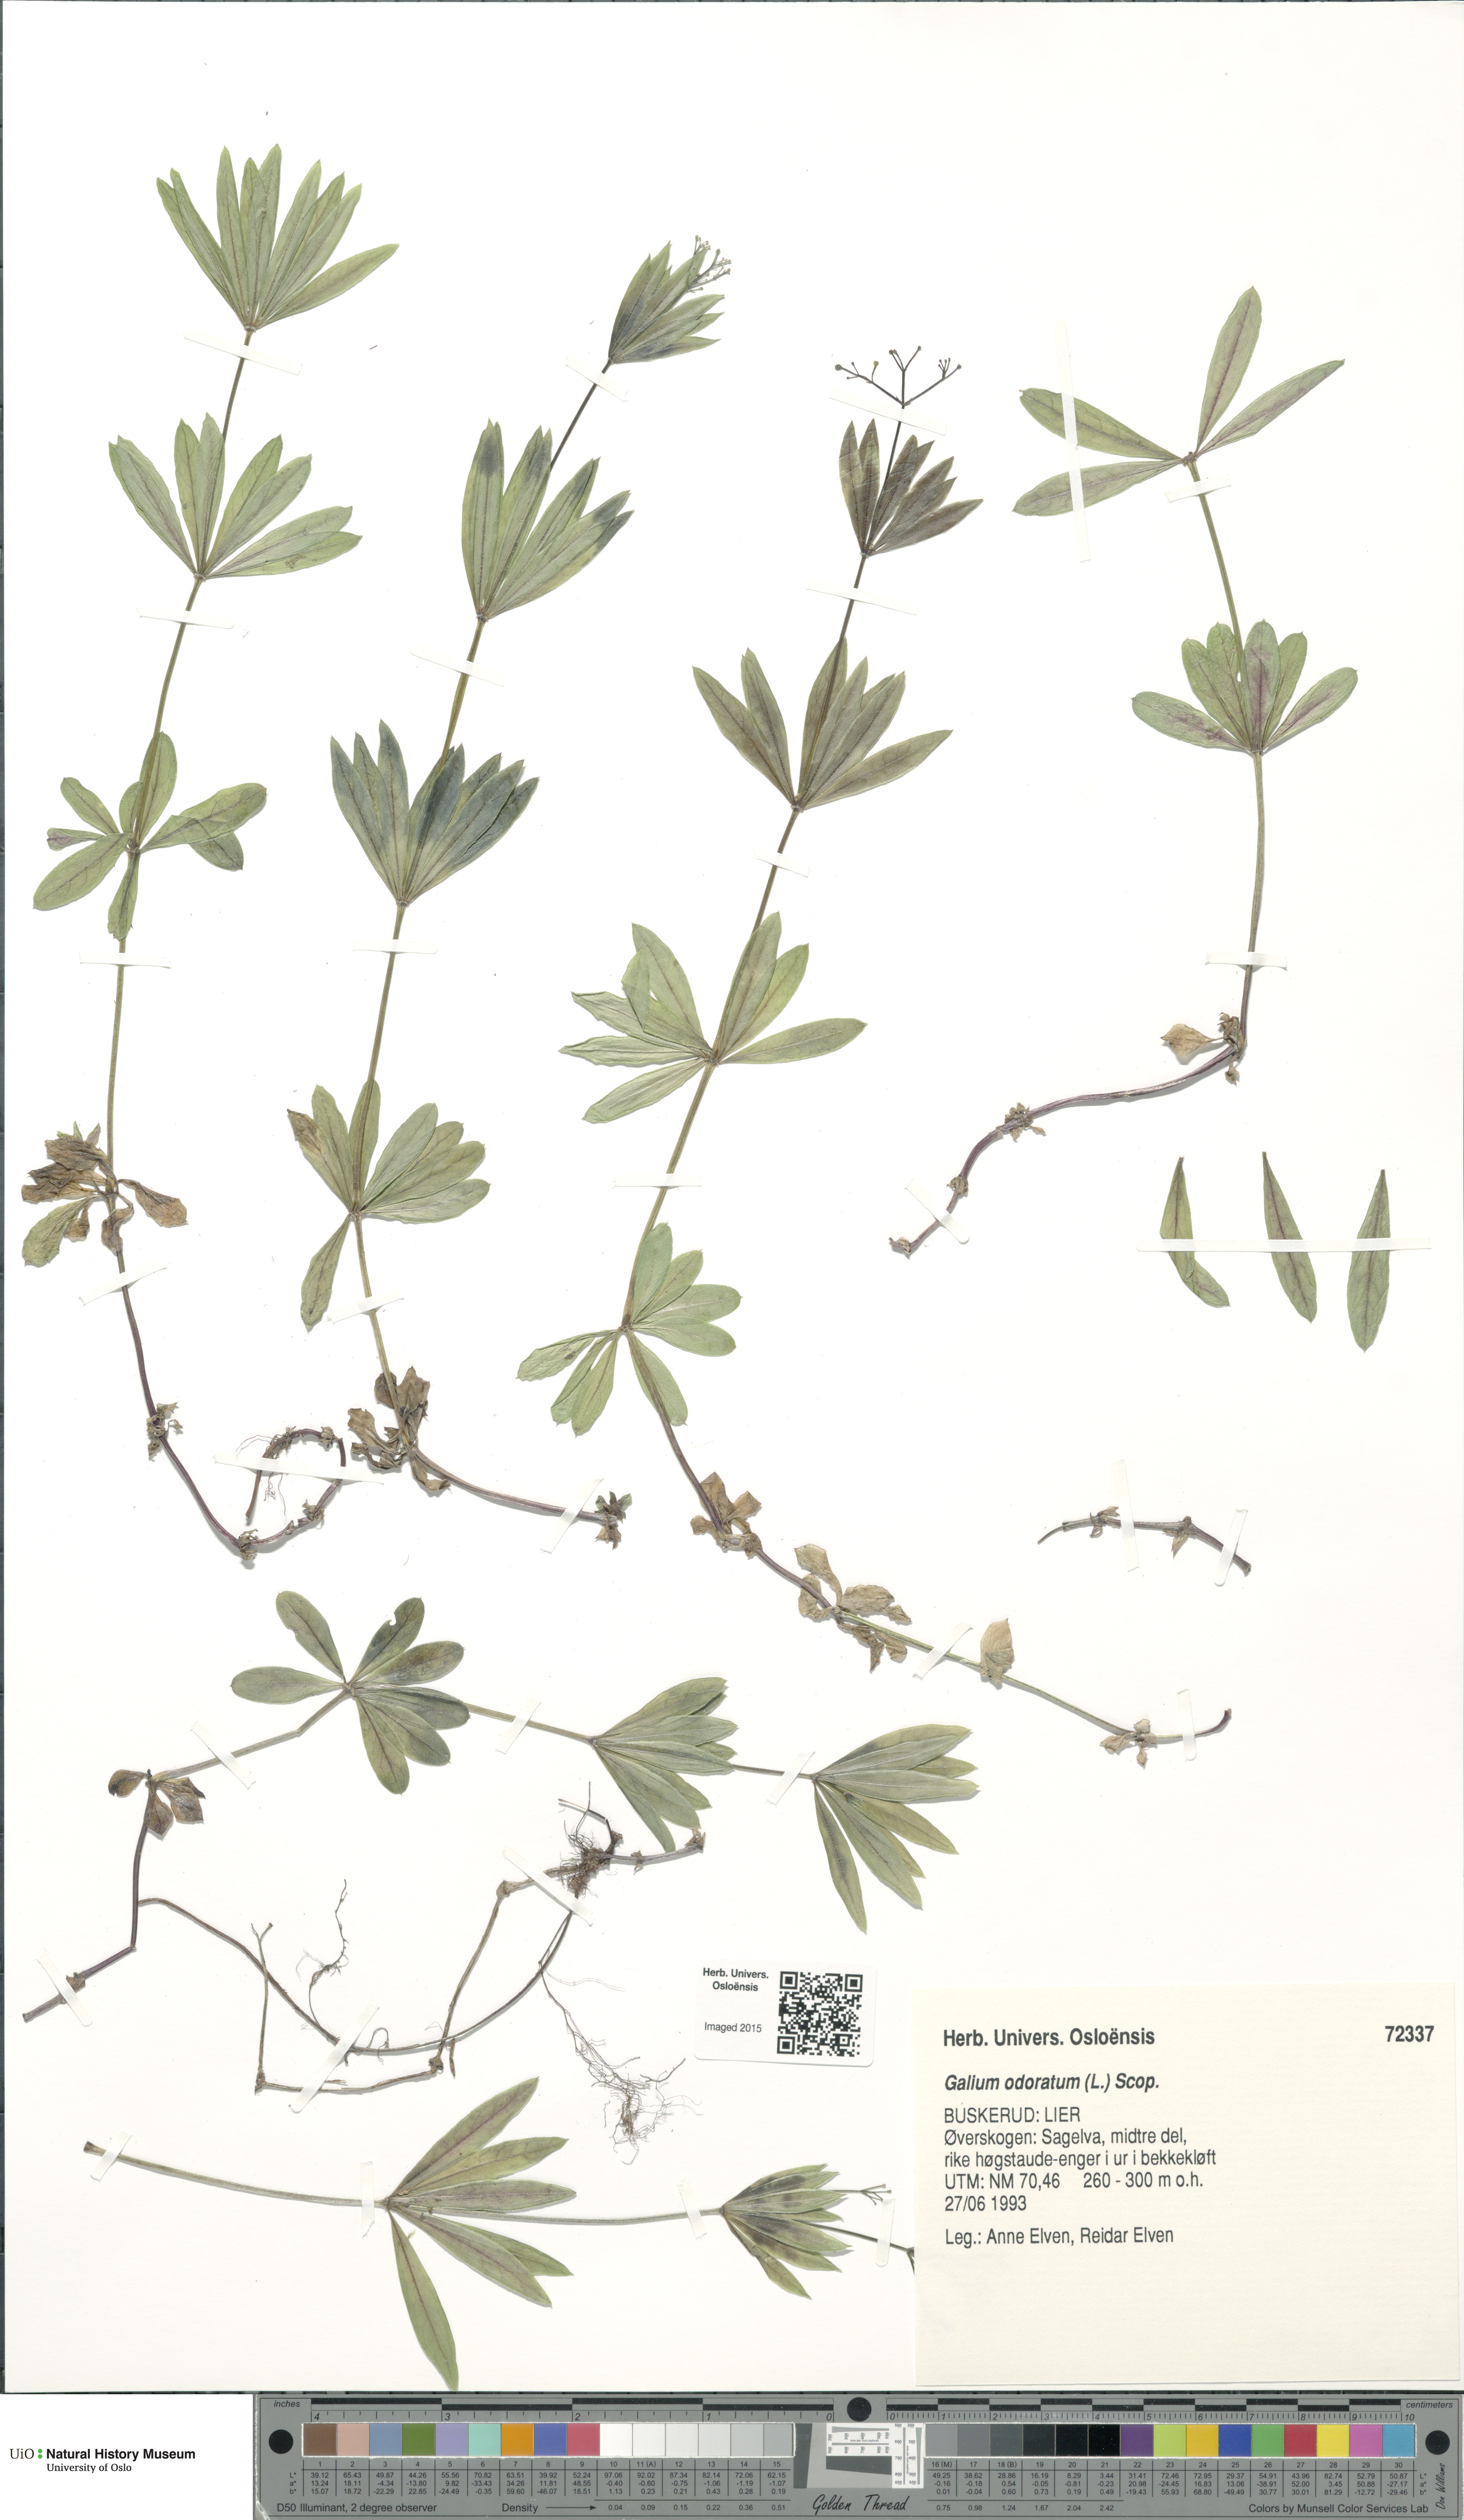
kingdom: Plantae
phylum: Tracheophyta
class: Magnoliopsida
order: Gentianales
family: Rubiaceae
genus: Galium
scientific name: Galium odoratum
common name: Sweet woodruff
